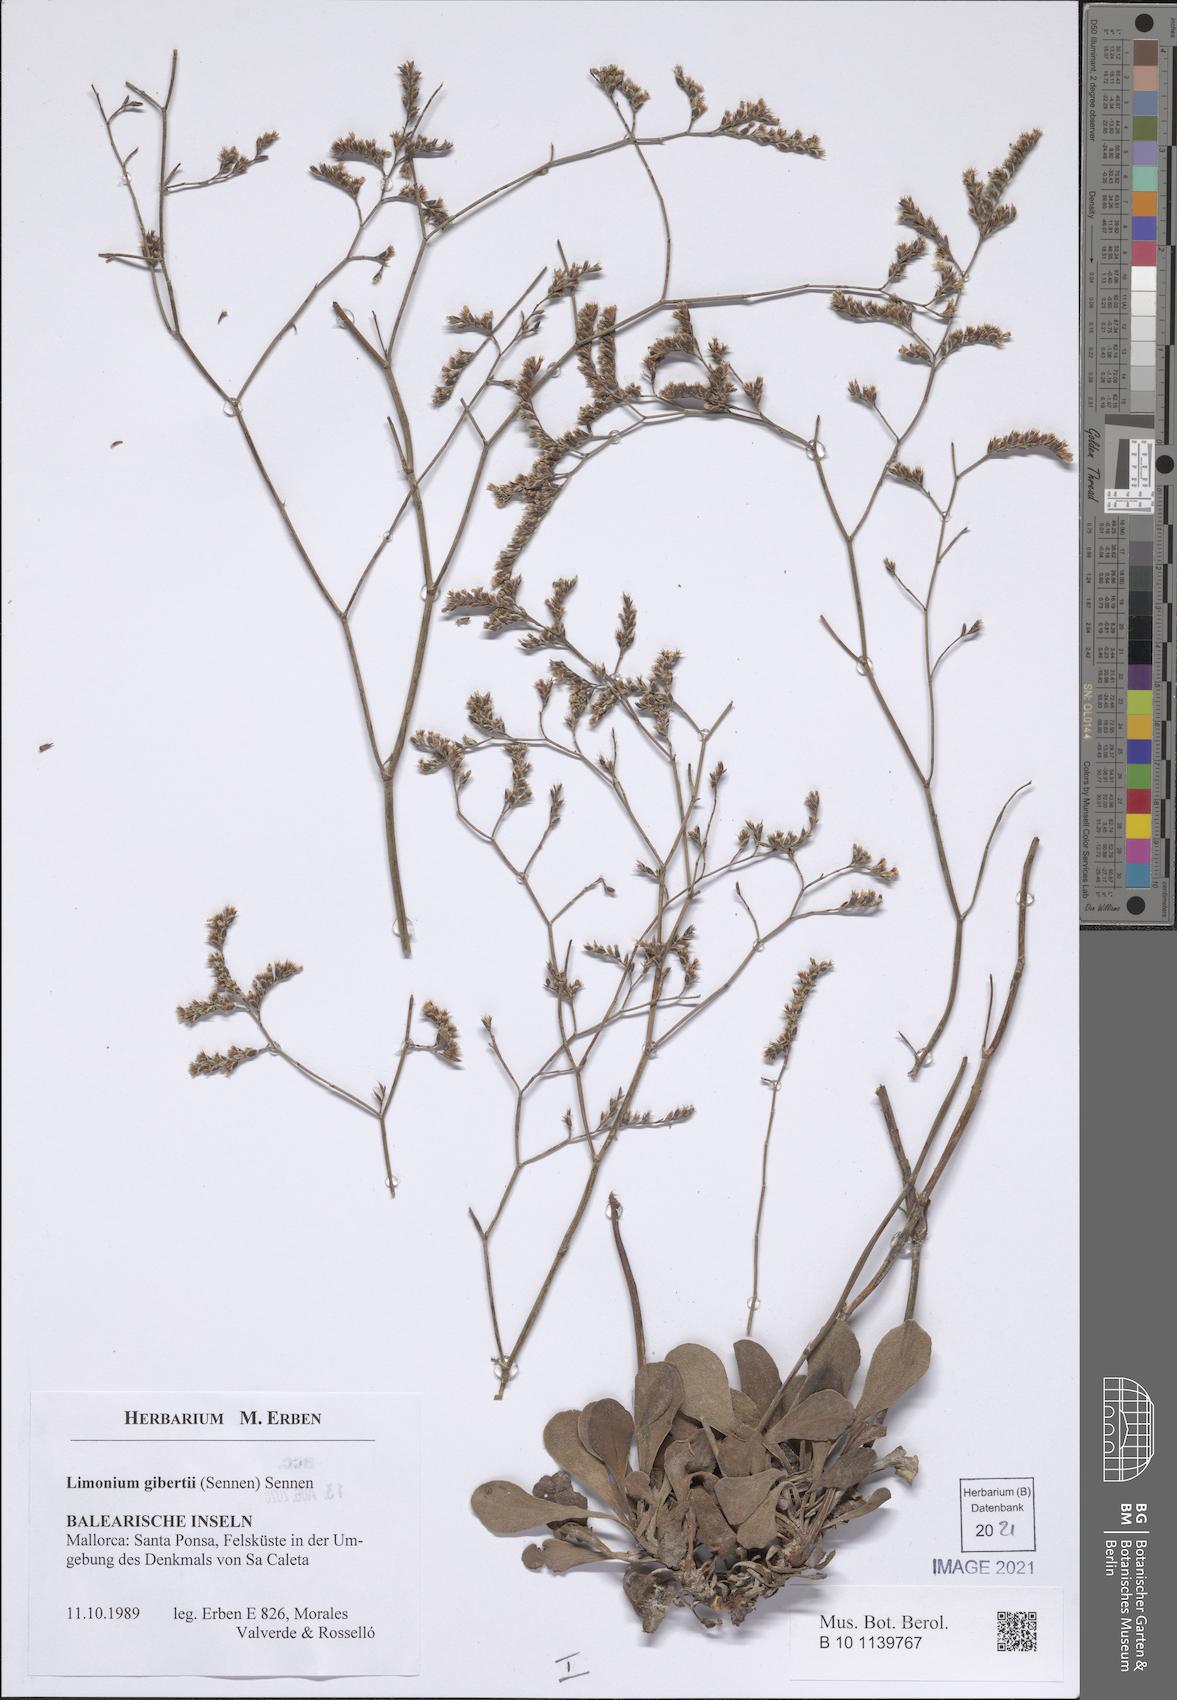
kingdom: Plantae
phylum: Tracheophyta
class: Magnoliopsida
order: Caryophyllales
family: Plumbaginaceae
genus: Limonium
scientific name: Limonium gibertii
